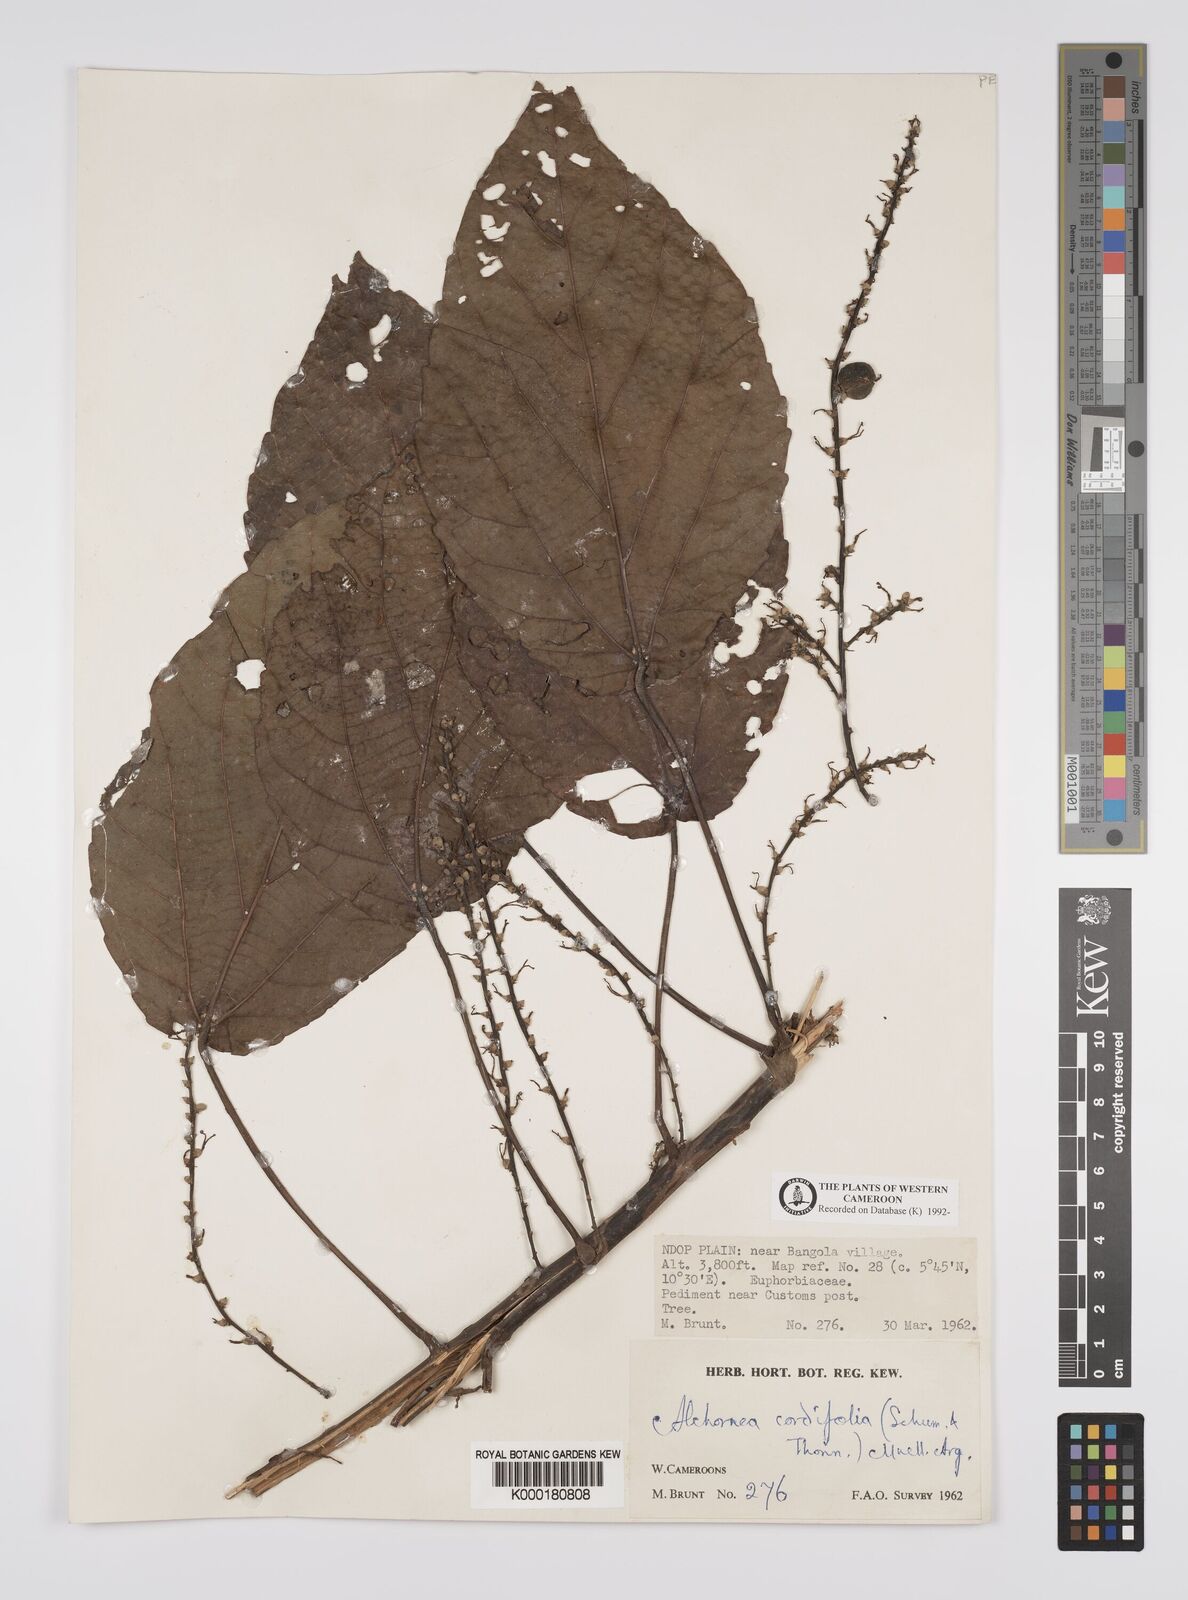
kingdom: Plantae
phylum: Tracheophyta
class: Magnoliopsida
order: Malpighiales
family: Euphorbiaceae
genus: Alchornea
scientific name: Alchornea
